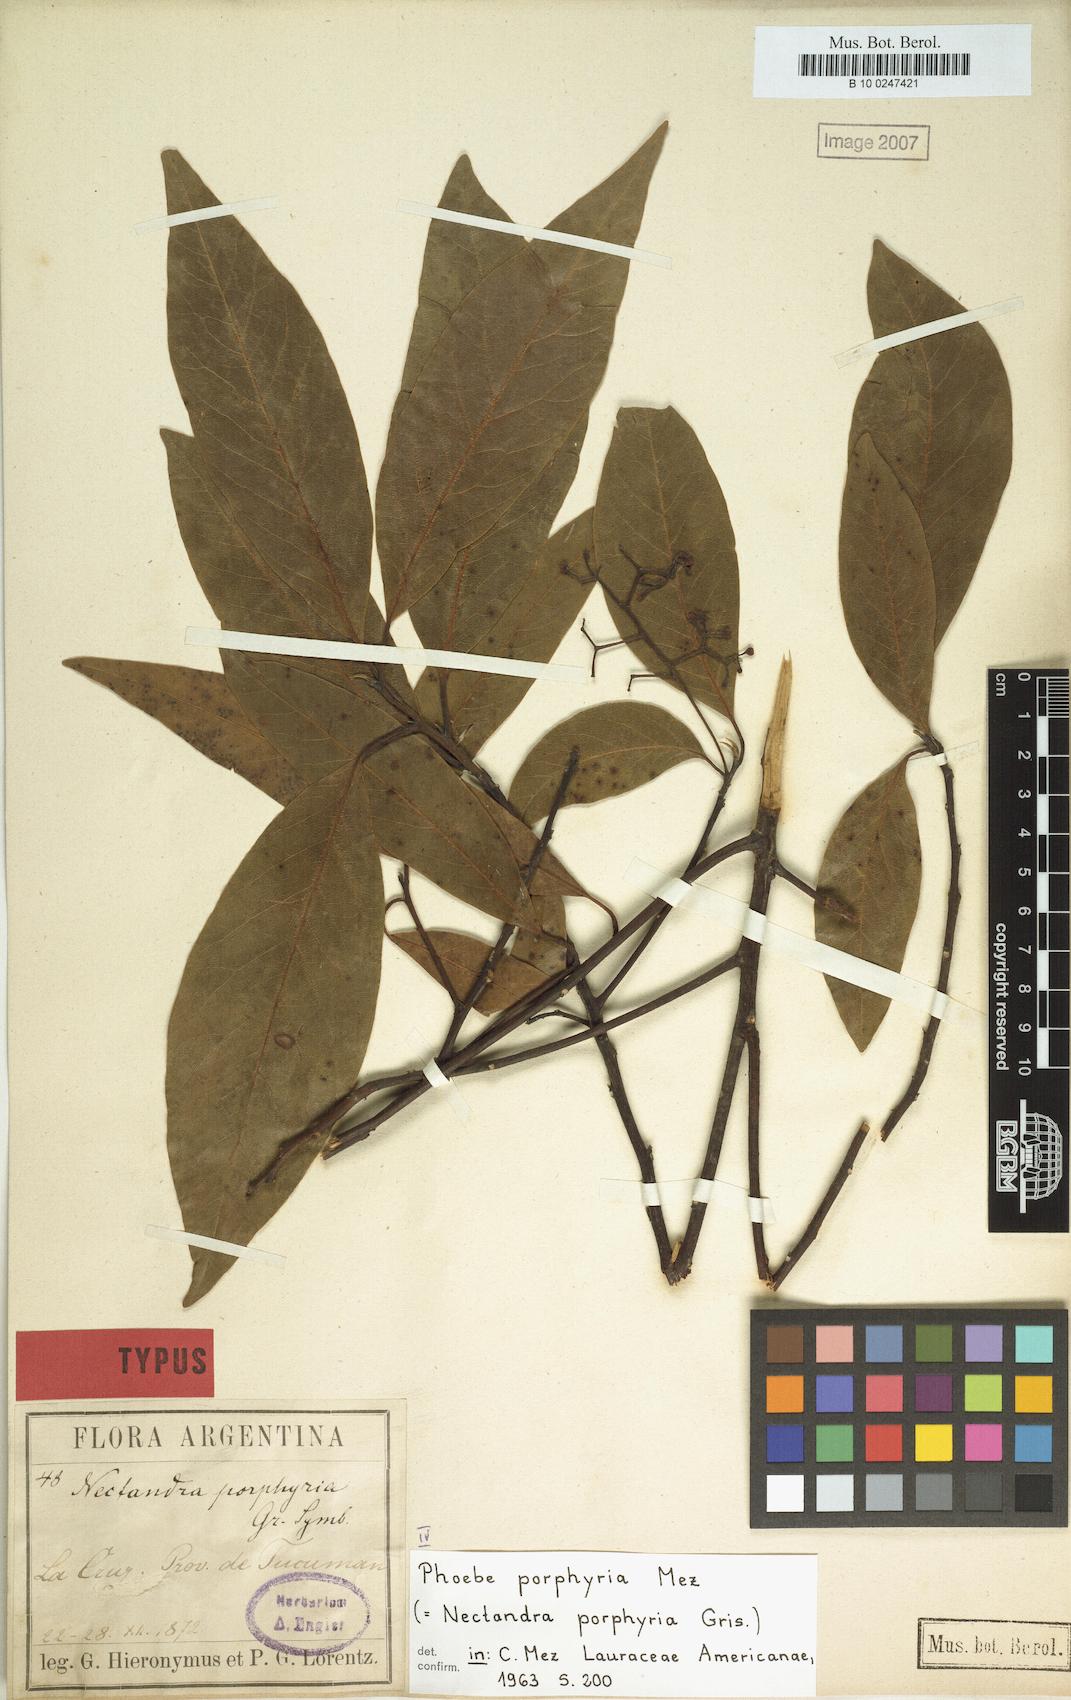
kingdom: Plantae
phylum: Tracheophyta
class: Magnoliopsida
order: Laurales
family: Lauraceae
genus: Ocotea
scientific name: Ocotea porphyria
